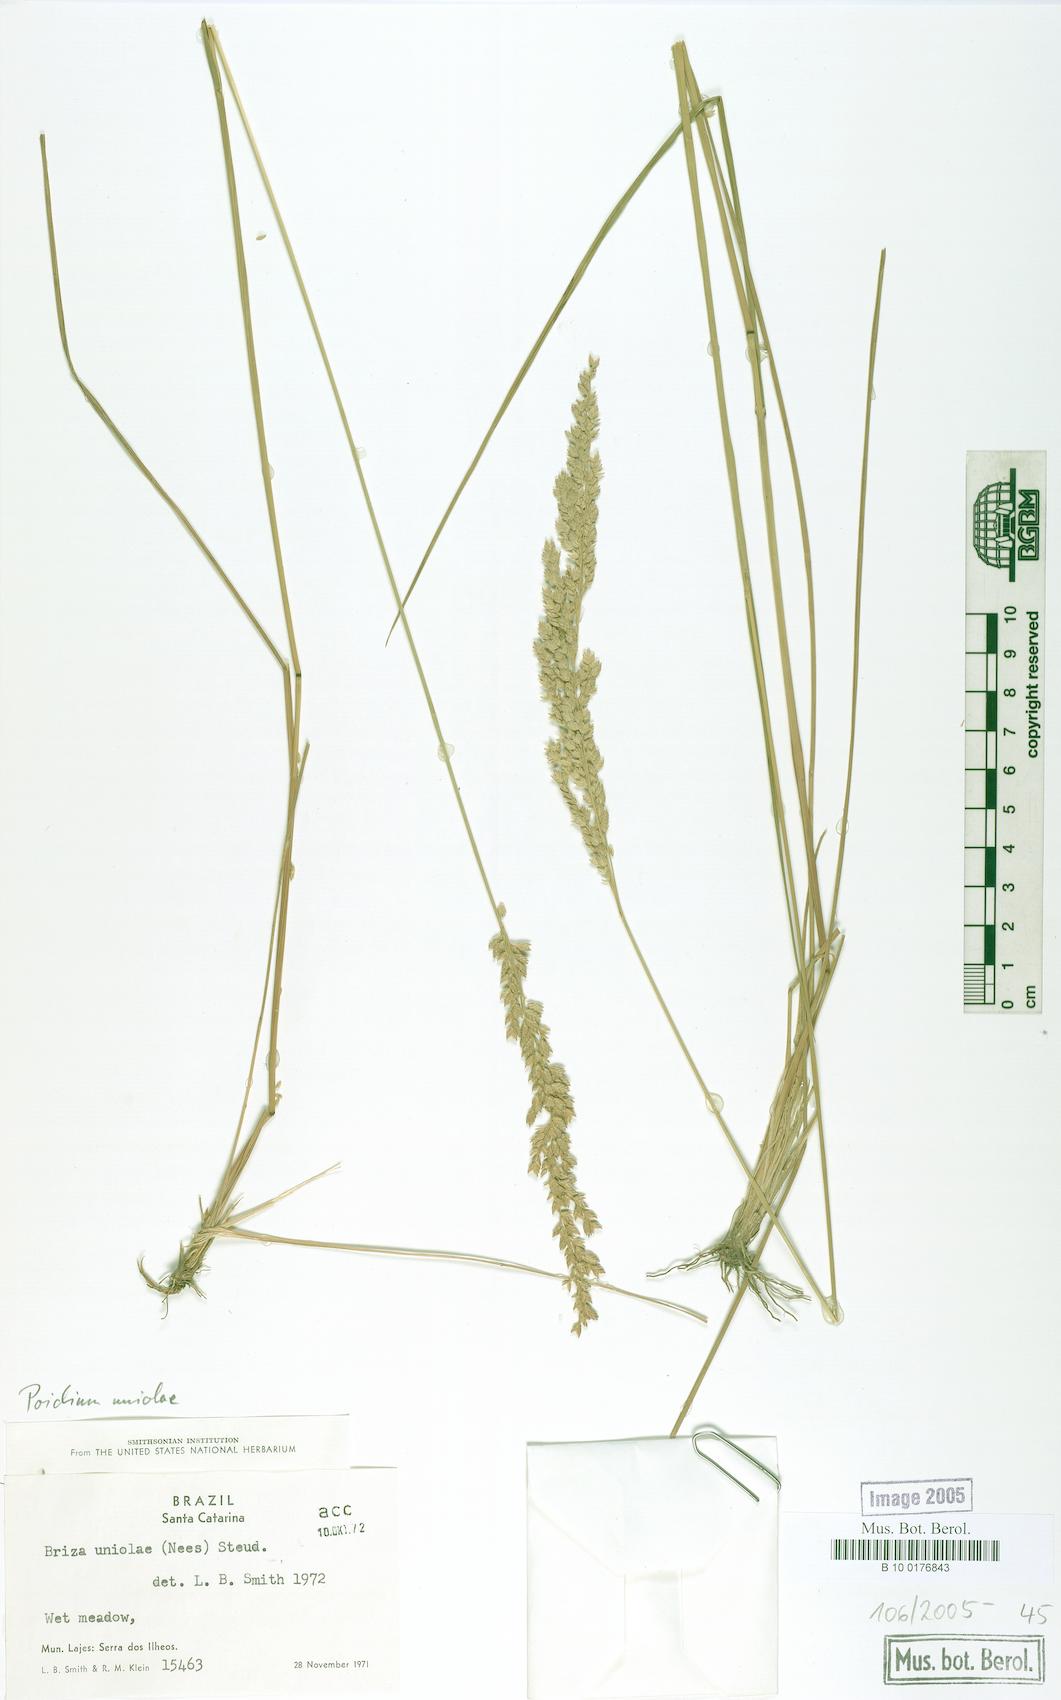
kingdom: Plantae
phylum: Tracheophyta
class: Liliopsida
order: Poales
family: Poaceae
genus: Poidium
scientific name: Poidium uniolae
